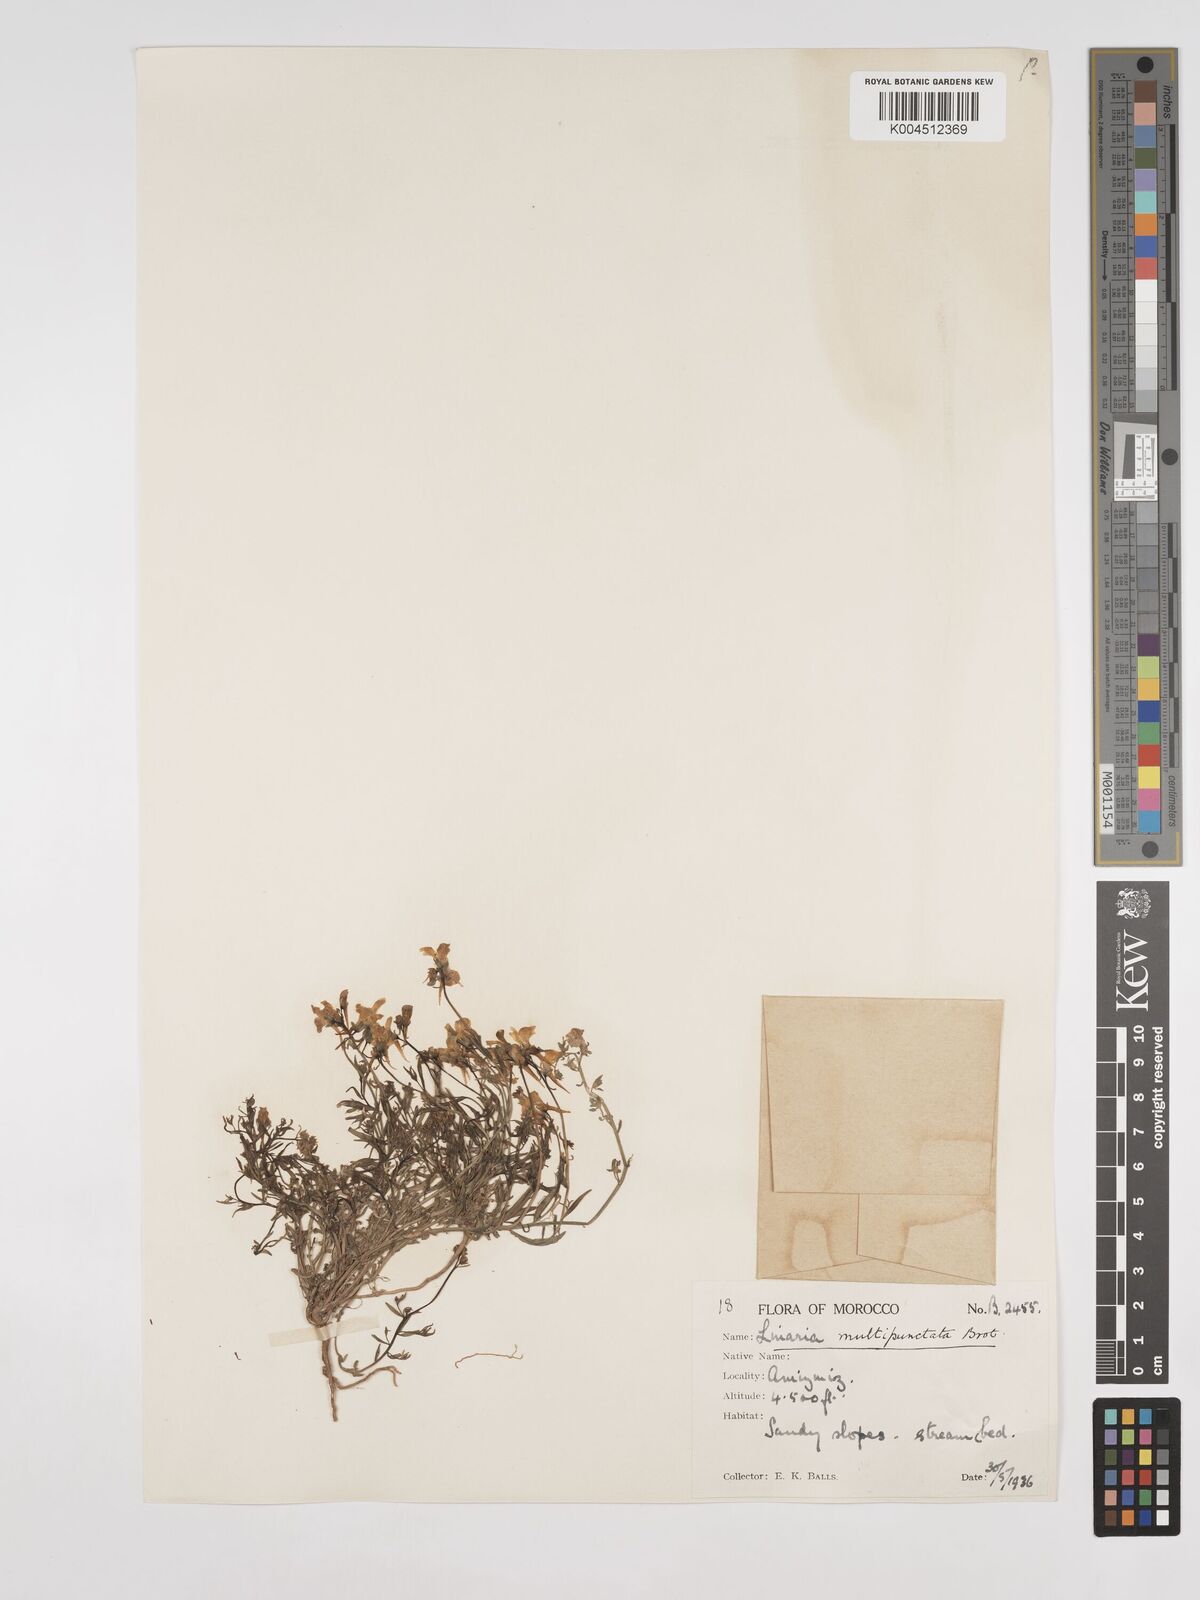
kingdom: Plantae
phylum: Tracheophyta
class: Magnoliopsida
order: Lamiales
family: Plantaginaceae
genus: Linaria
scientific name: Linaria
